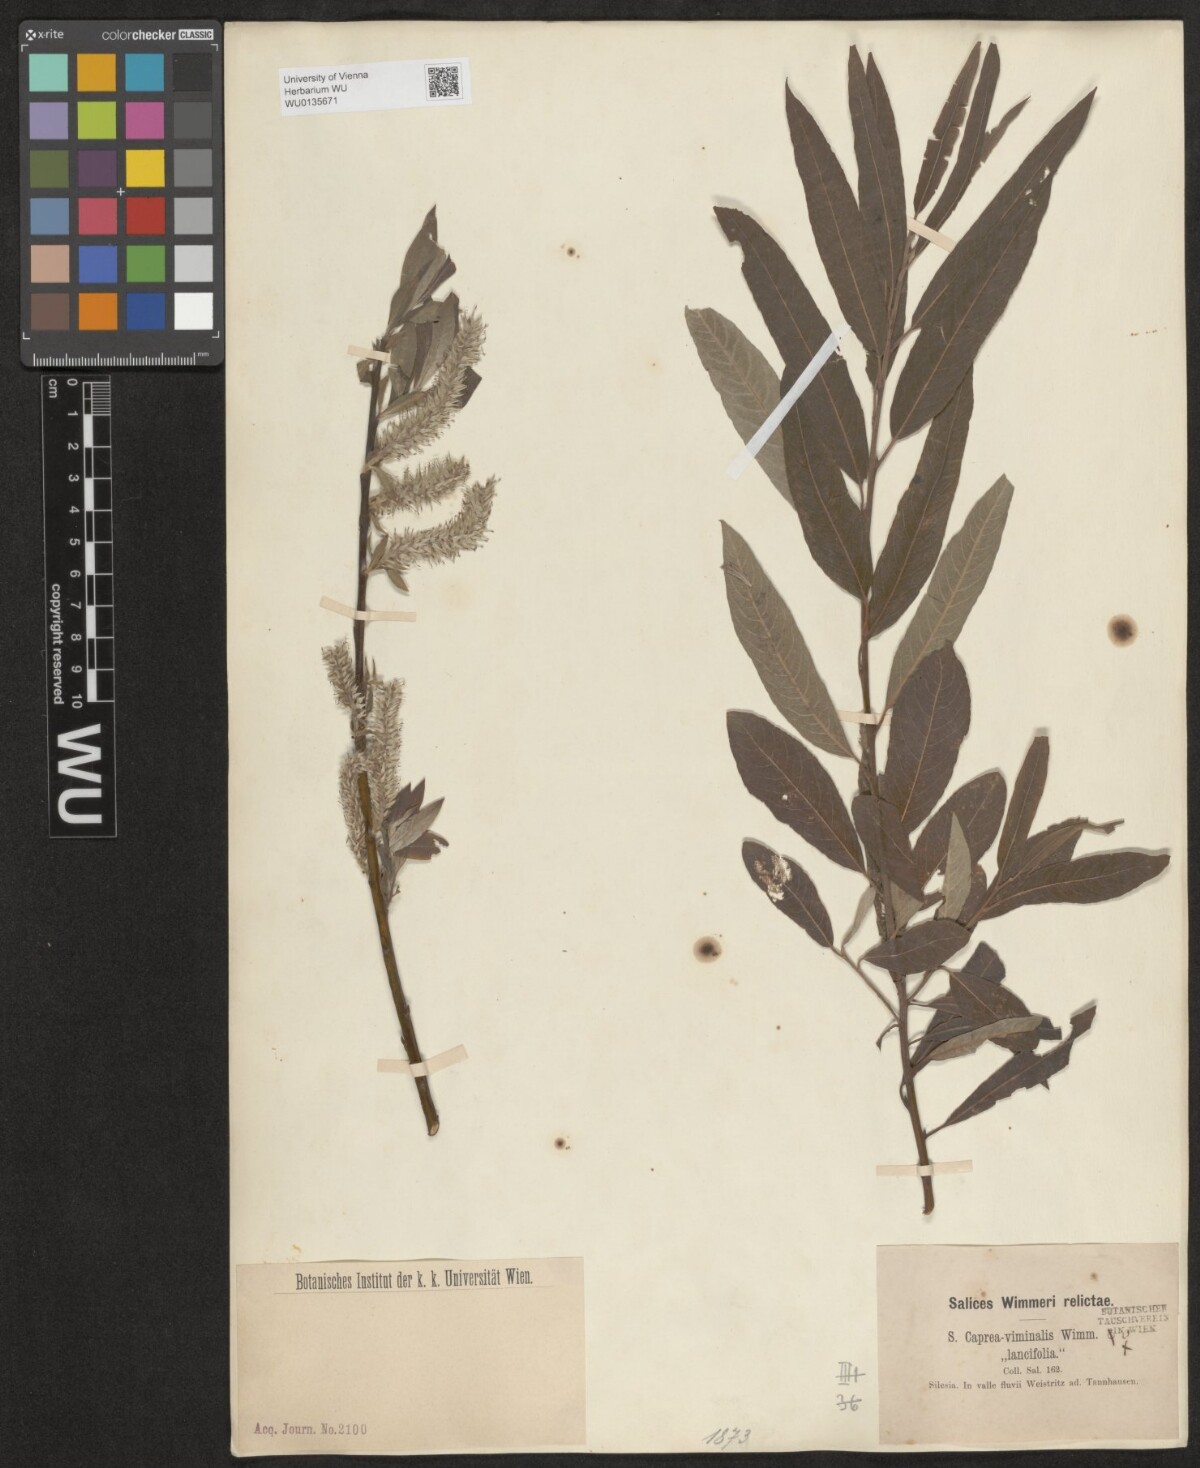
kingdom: Plantae
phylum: Tracheophyta
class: Magnoliopsida
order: Malpighiales
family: Salicaceae
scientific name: Salicaceae
